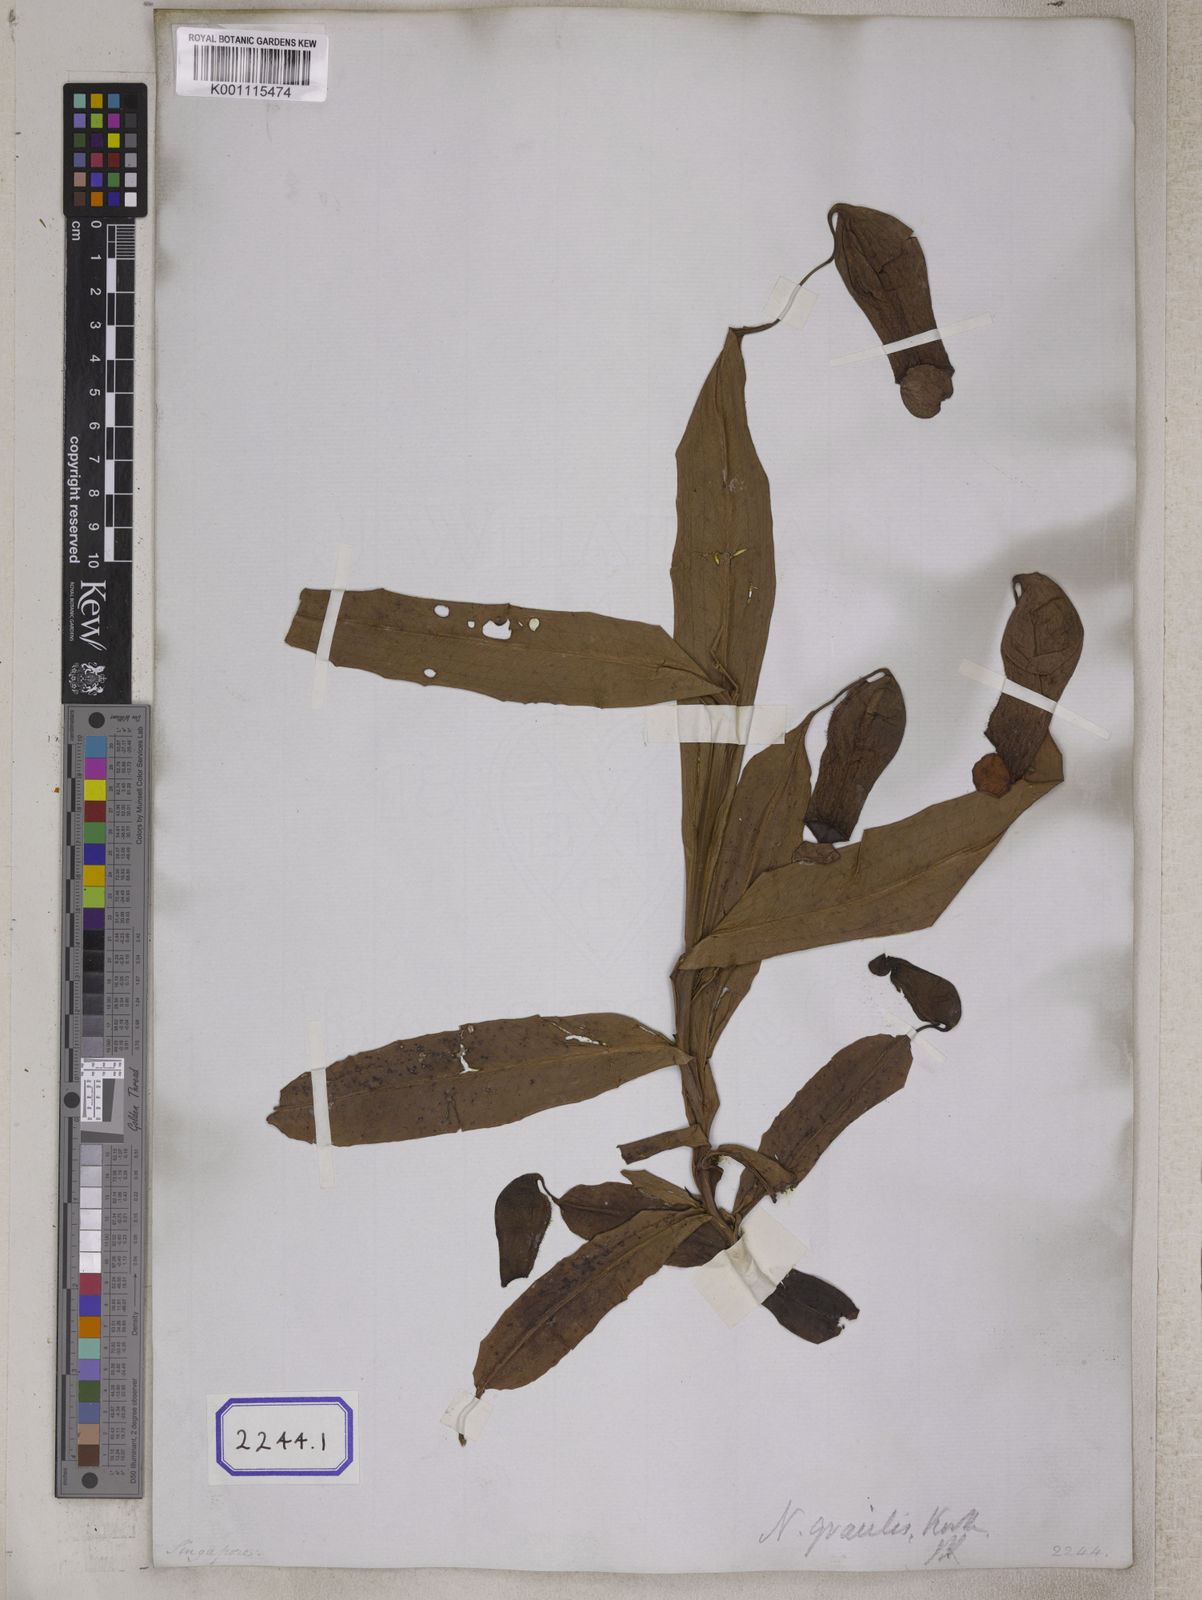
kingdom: Plantae
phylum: Tracheophyta
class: Magnoliopsida
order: Caryophyllales
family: Nepenthaceae
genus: Nepenthes
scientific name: Nepenthes distillatoria
